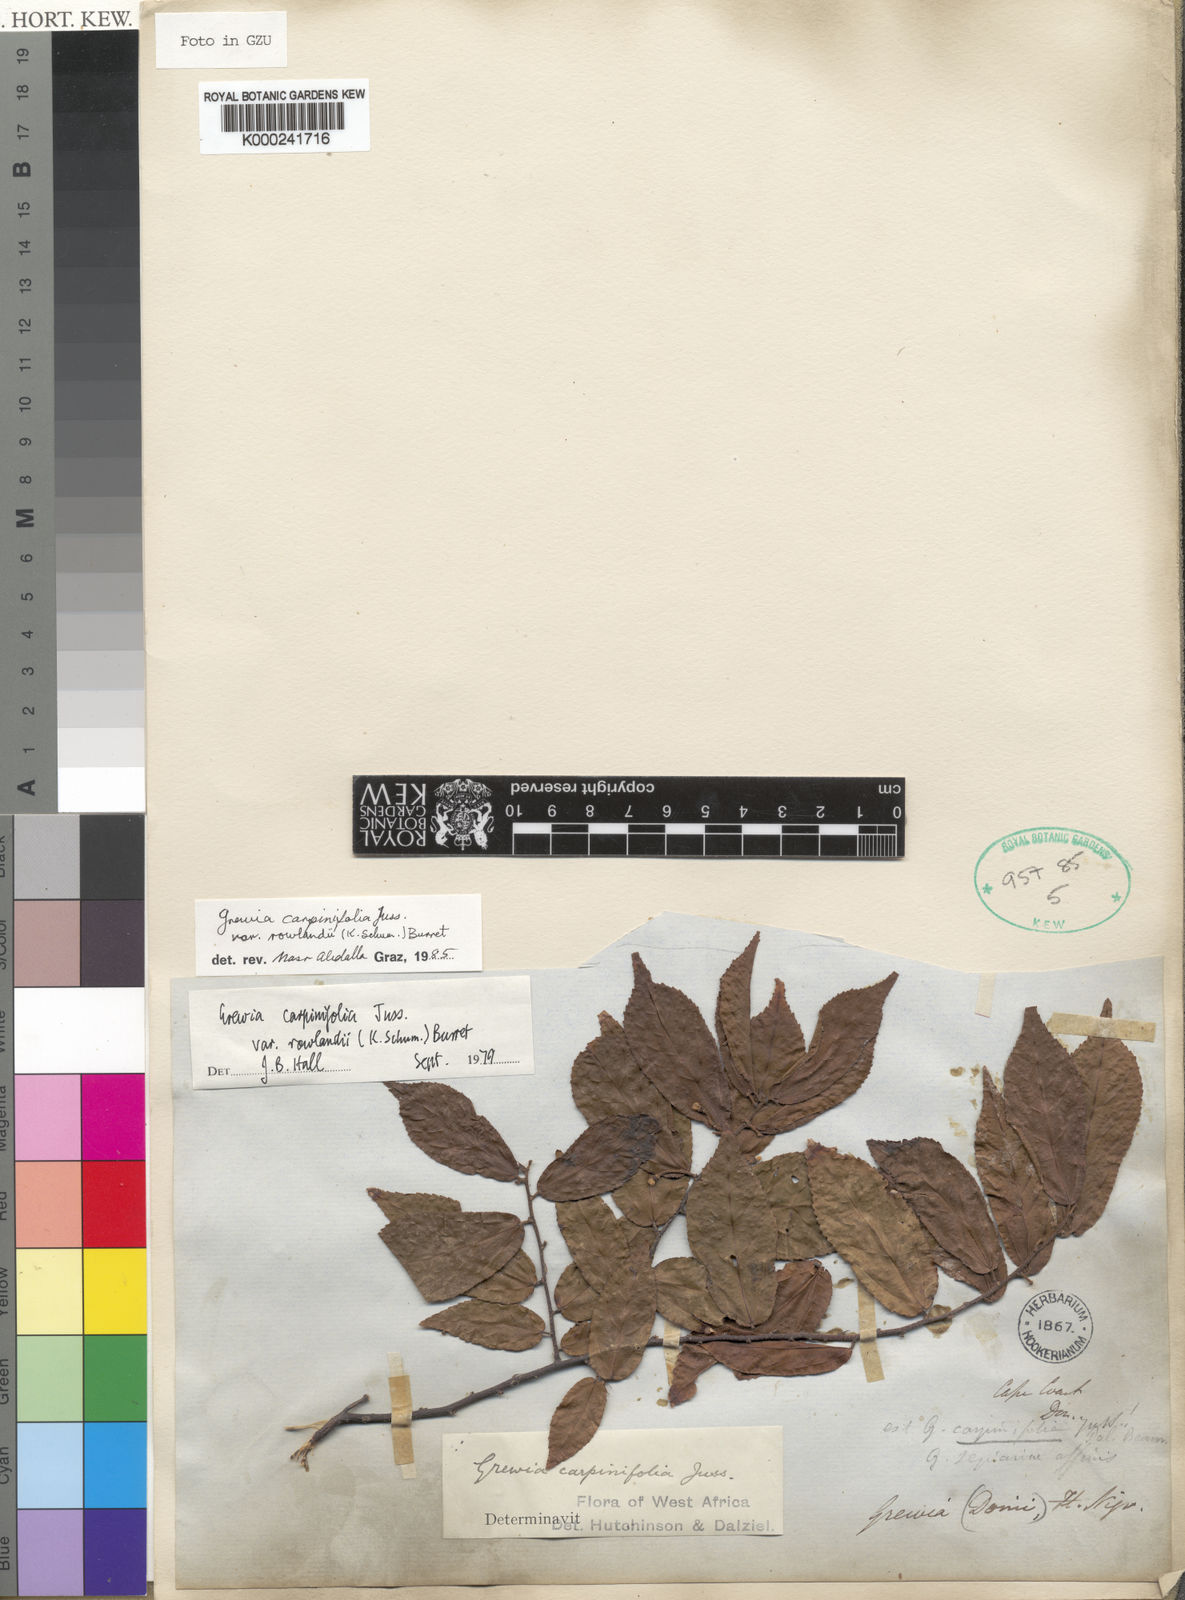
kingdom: Plantae
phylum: Tracheophyta
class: Magnoliopsida
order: Malvales
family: Malvaceae
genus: Grewia
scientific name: Grewia carpinifolia
